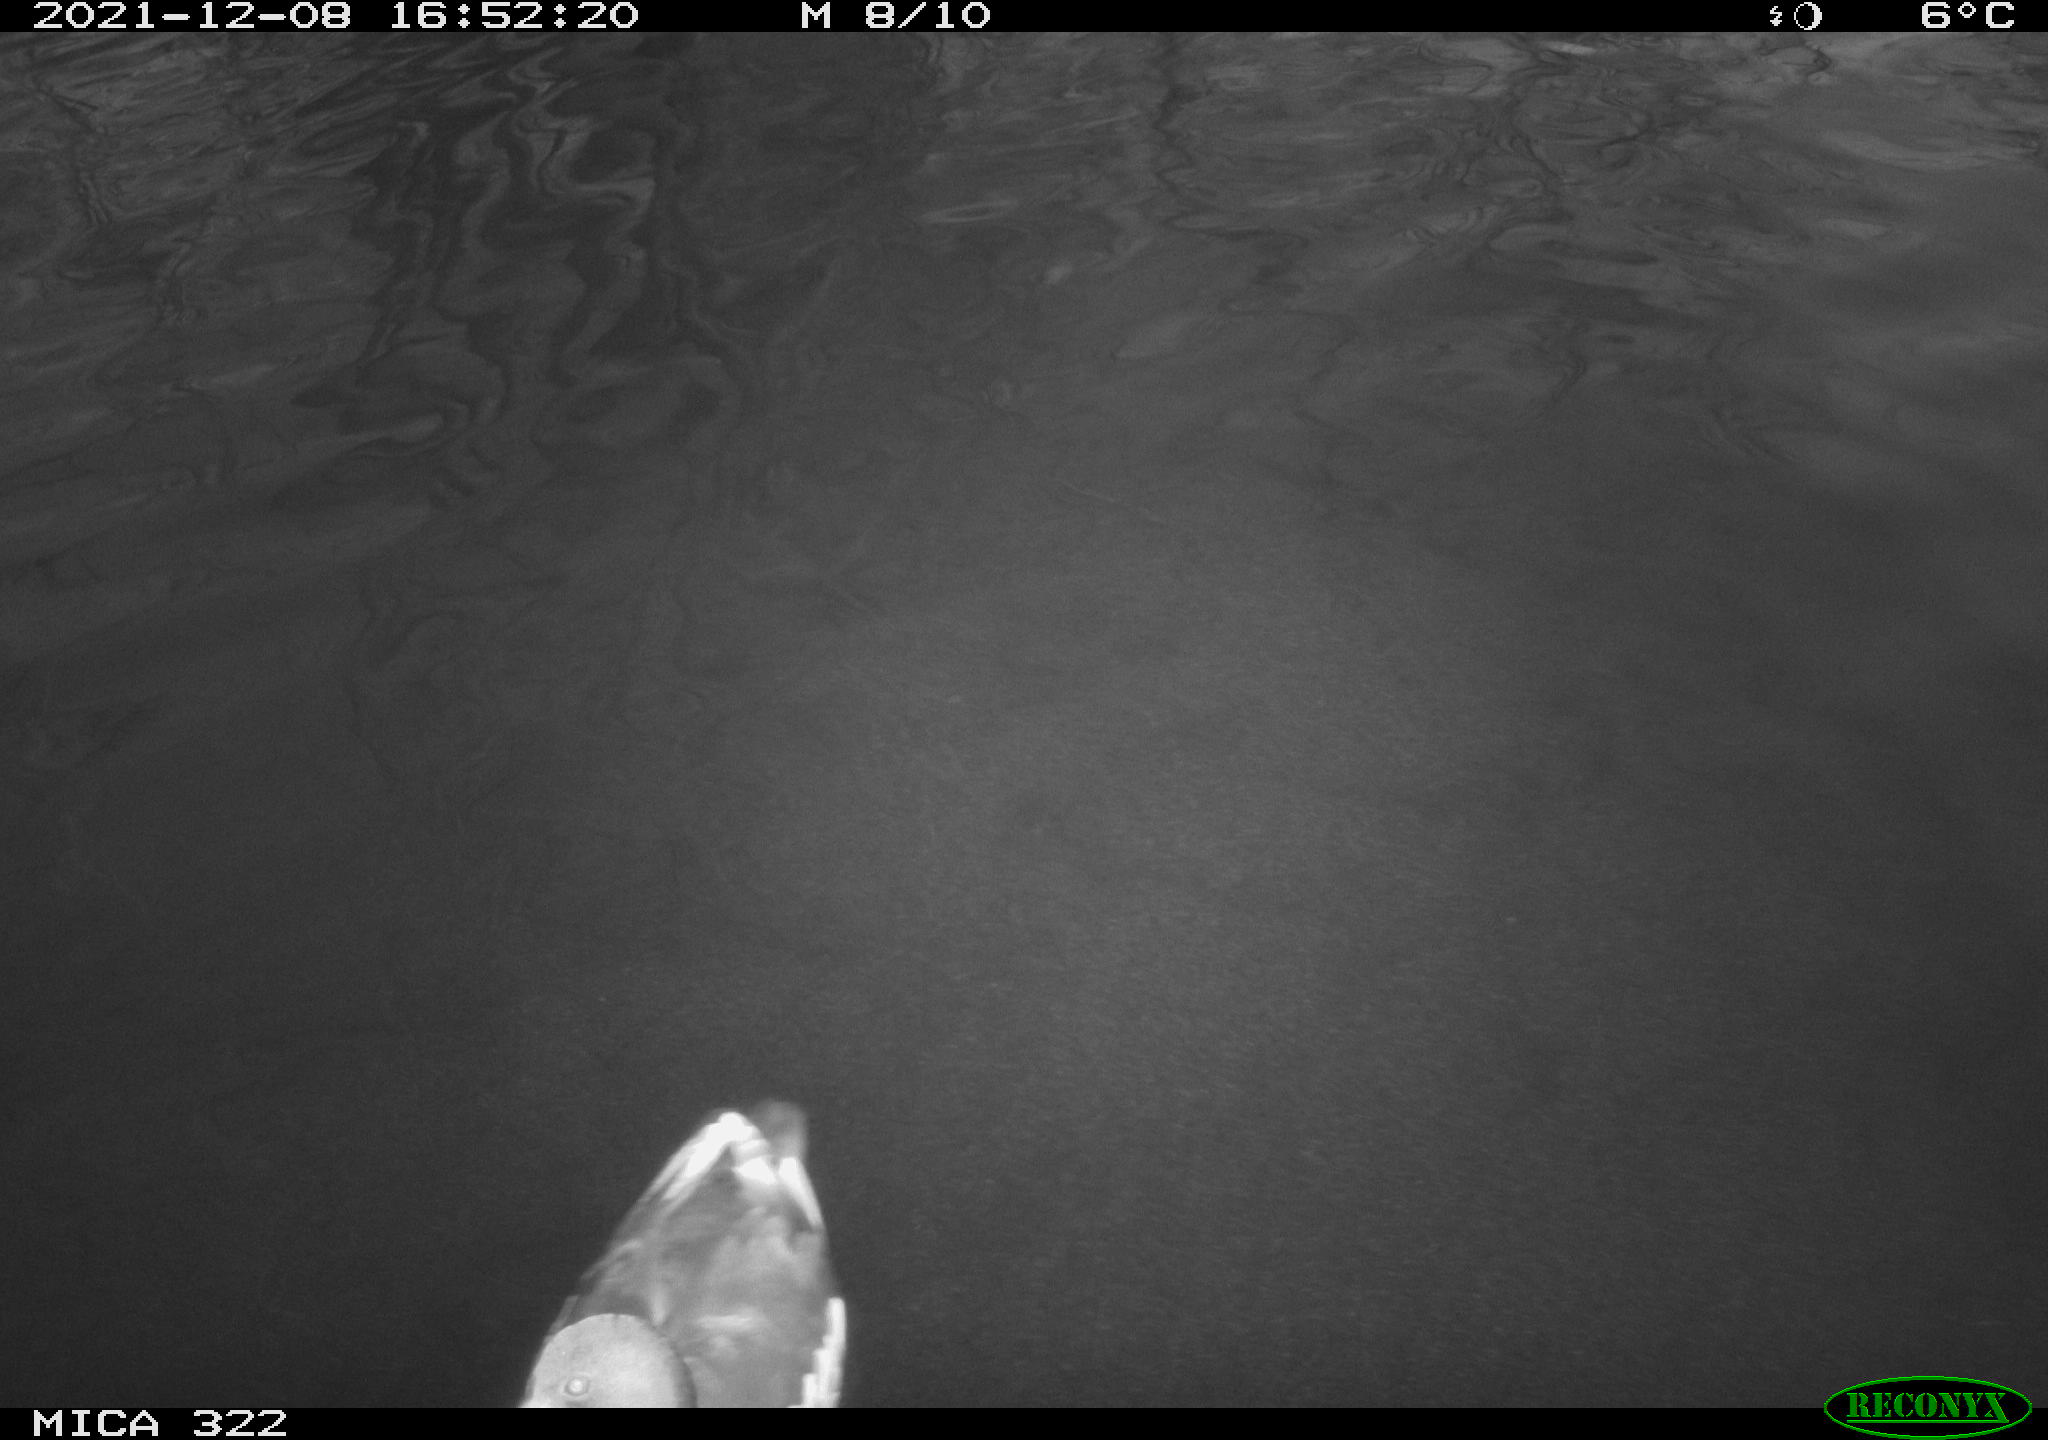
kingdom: Animalia
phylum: Chordata
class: Aves
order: Anseriformes
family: Anatidae
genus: Anas
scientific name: Anas
